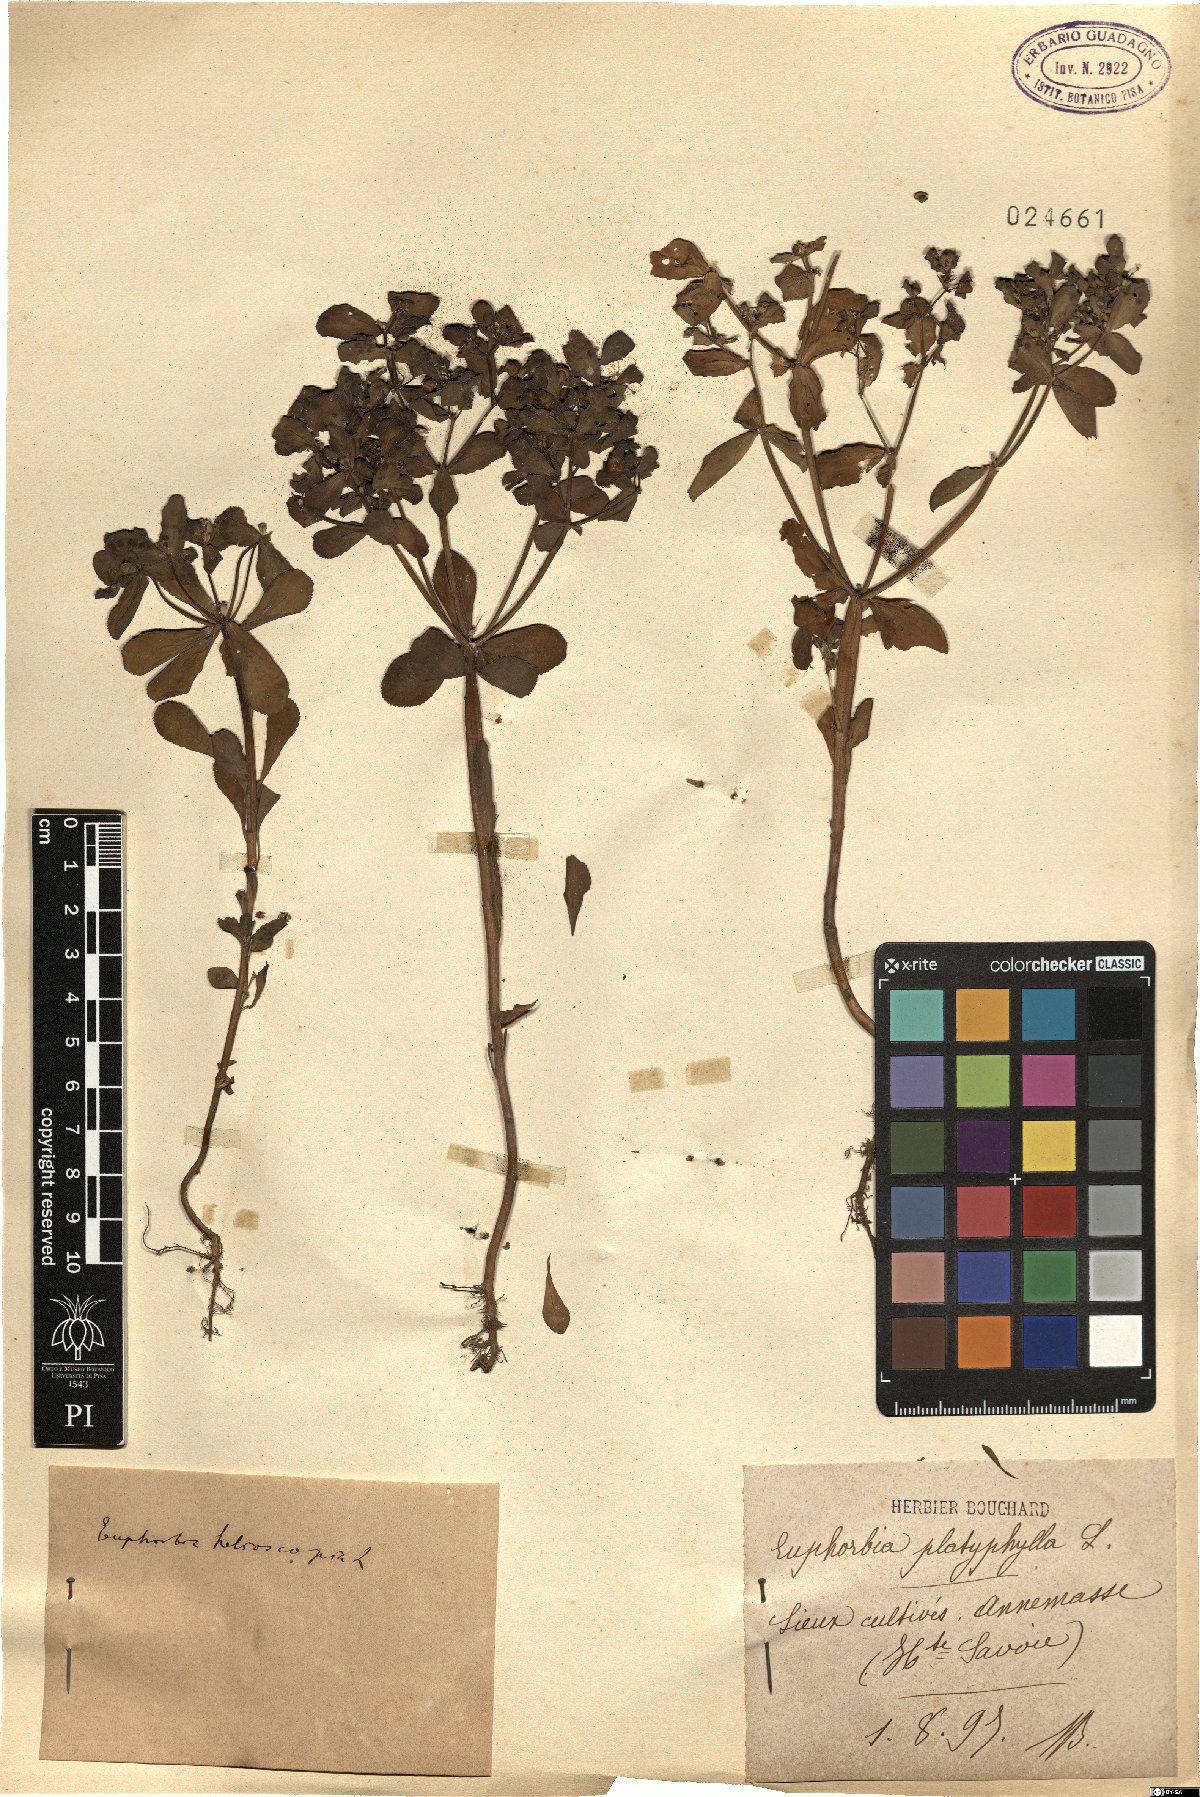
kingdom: Plantae
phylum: Tracheophyta
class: Magnoliopsida
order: Malpighiales
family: Euphorbiaceae
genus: Euphorbia
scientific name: Euphorbia helioscopia
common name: Sun spurge
